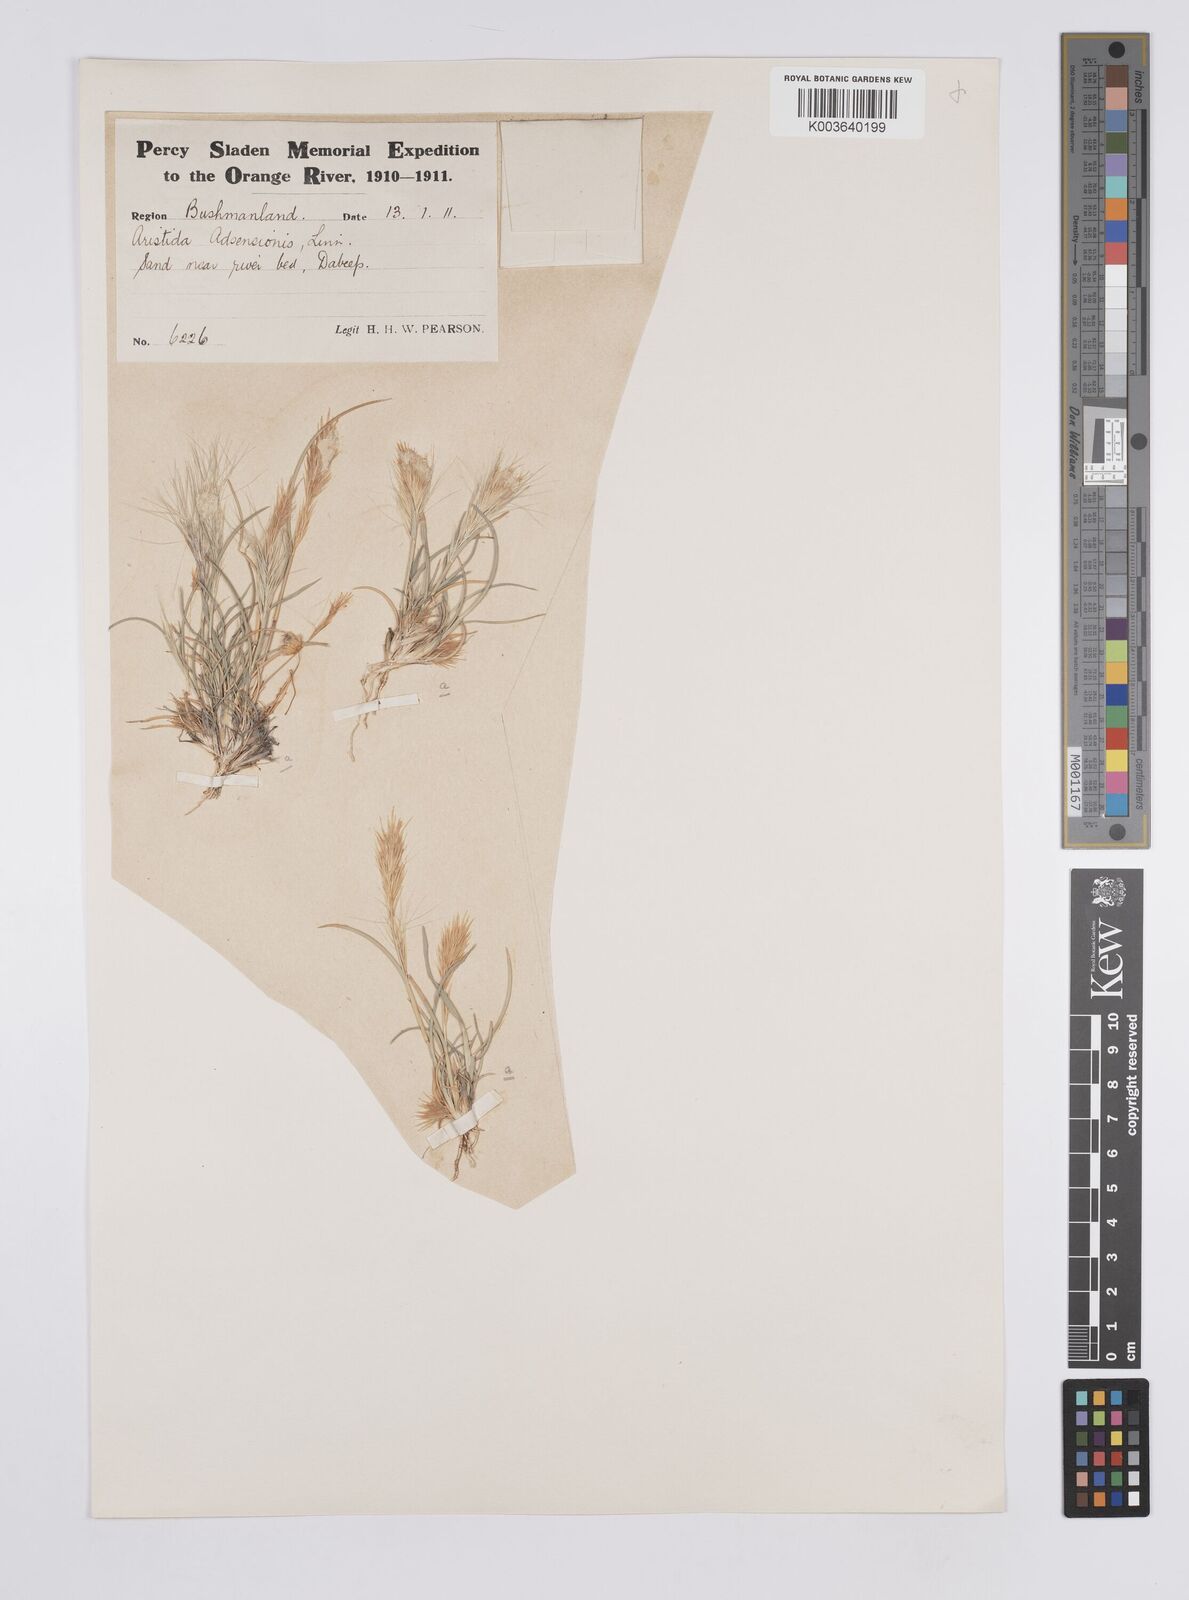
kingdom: Plantae
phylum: Tracheophyta
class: Liliopsida
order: Poales
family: Poaceae
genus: Aristida
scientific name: Aristida congesta
